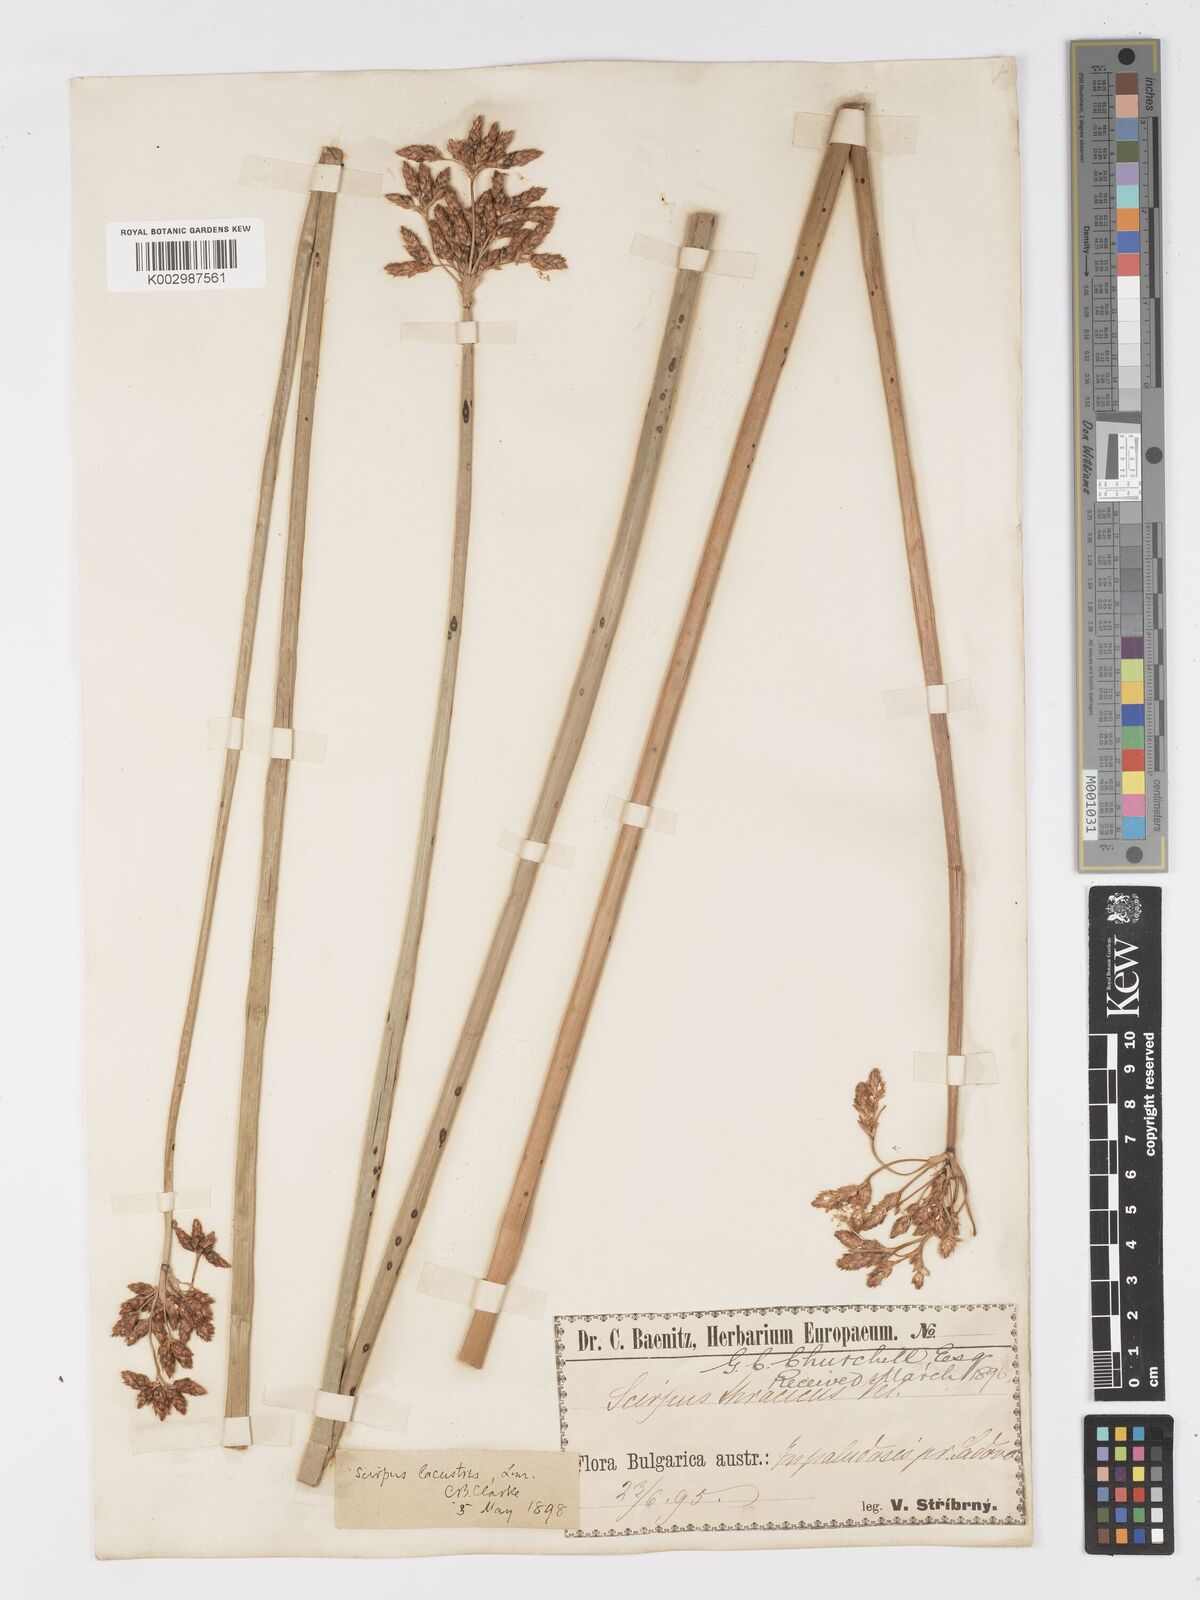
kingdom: Plantae
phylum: Tracheophyta
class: Liliopsida
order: Poales
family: Cyperaceae
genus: Schoenoplectus
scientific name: Schoenoplectus lacustris
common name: Common club-rush
